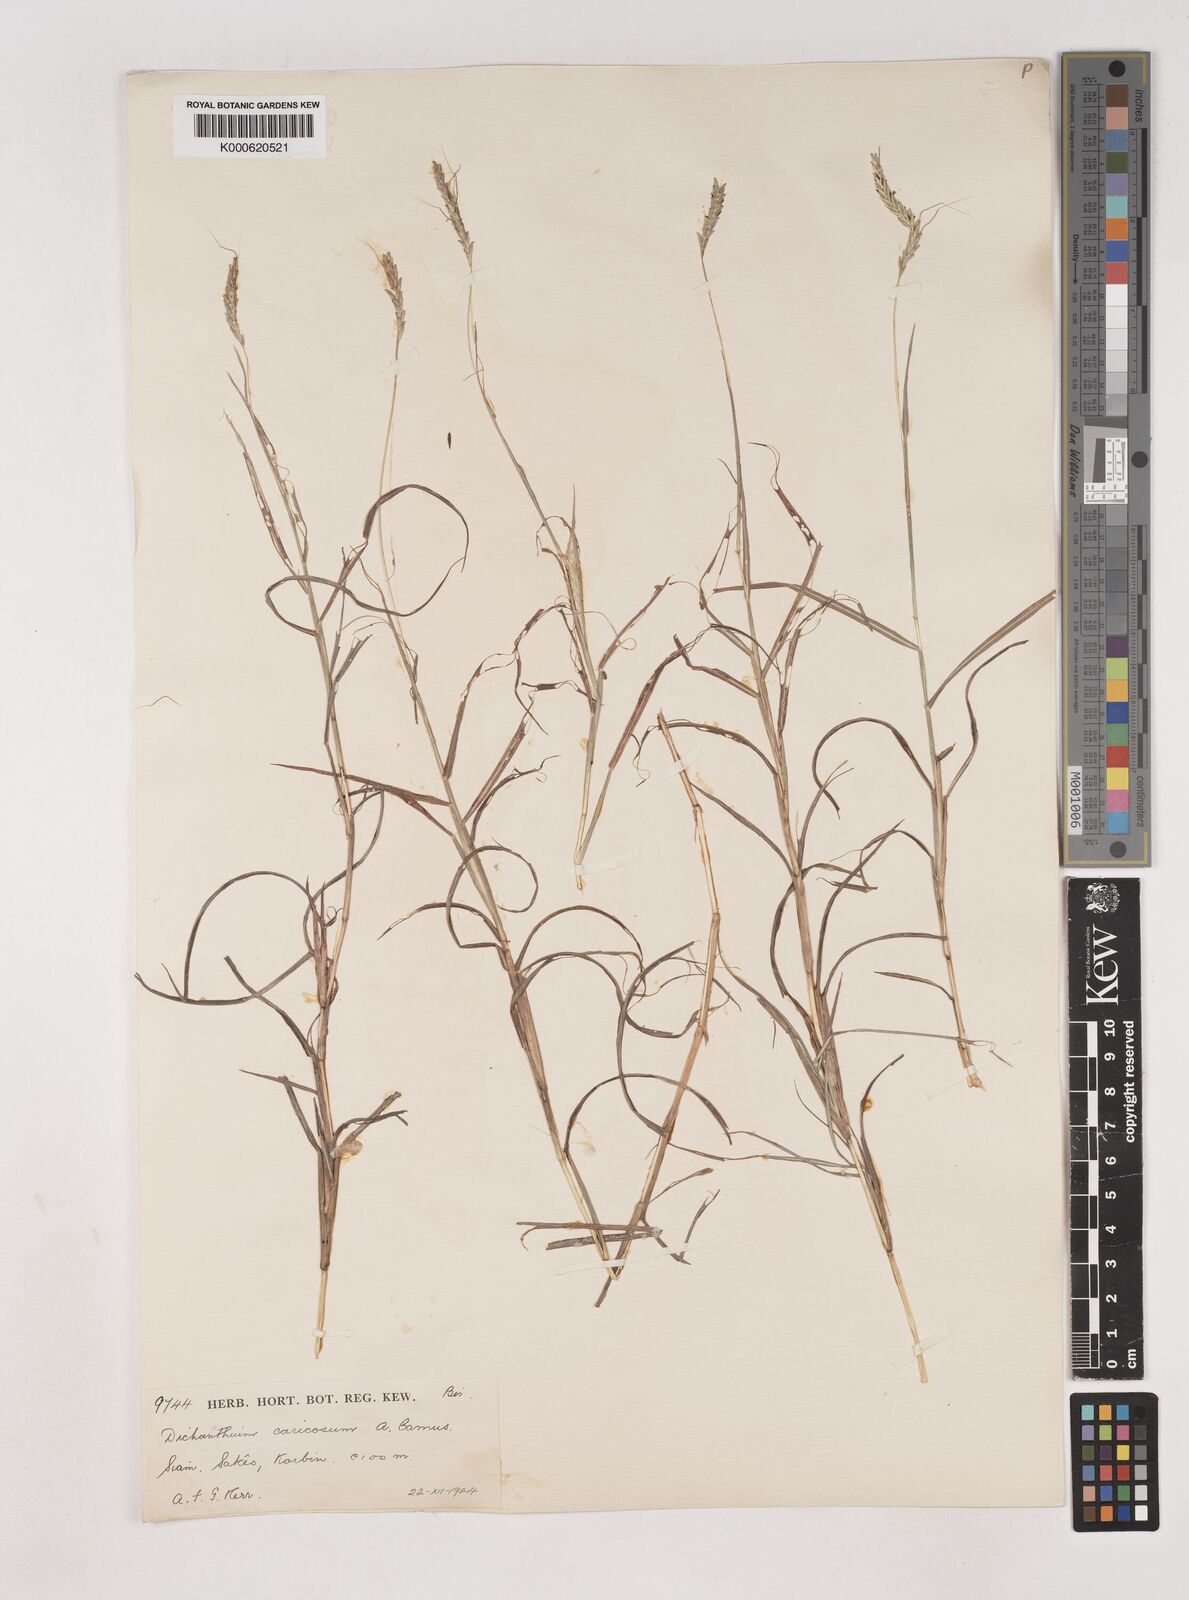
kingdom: Plantae
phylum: Tracheophyta
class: Liliopsida
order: Poales
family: Poaceae
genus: Dichanthium
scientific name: Dichanthium caricosum
